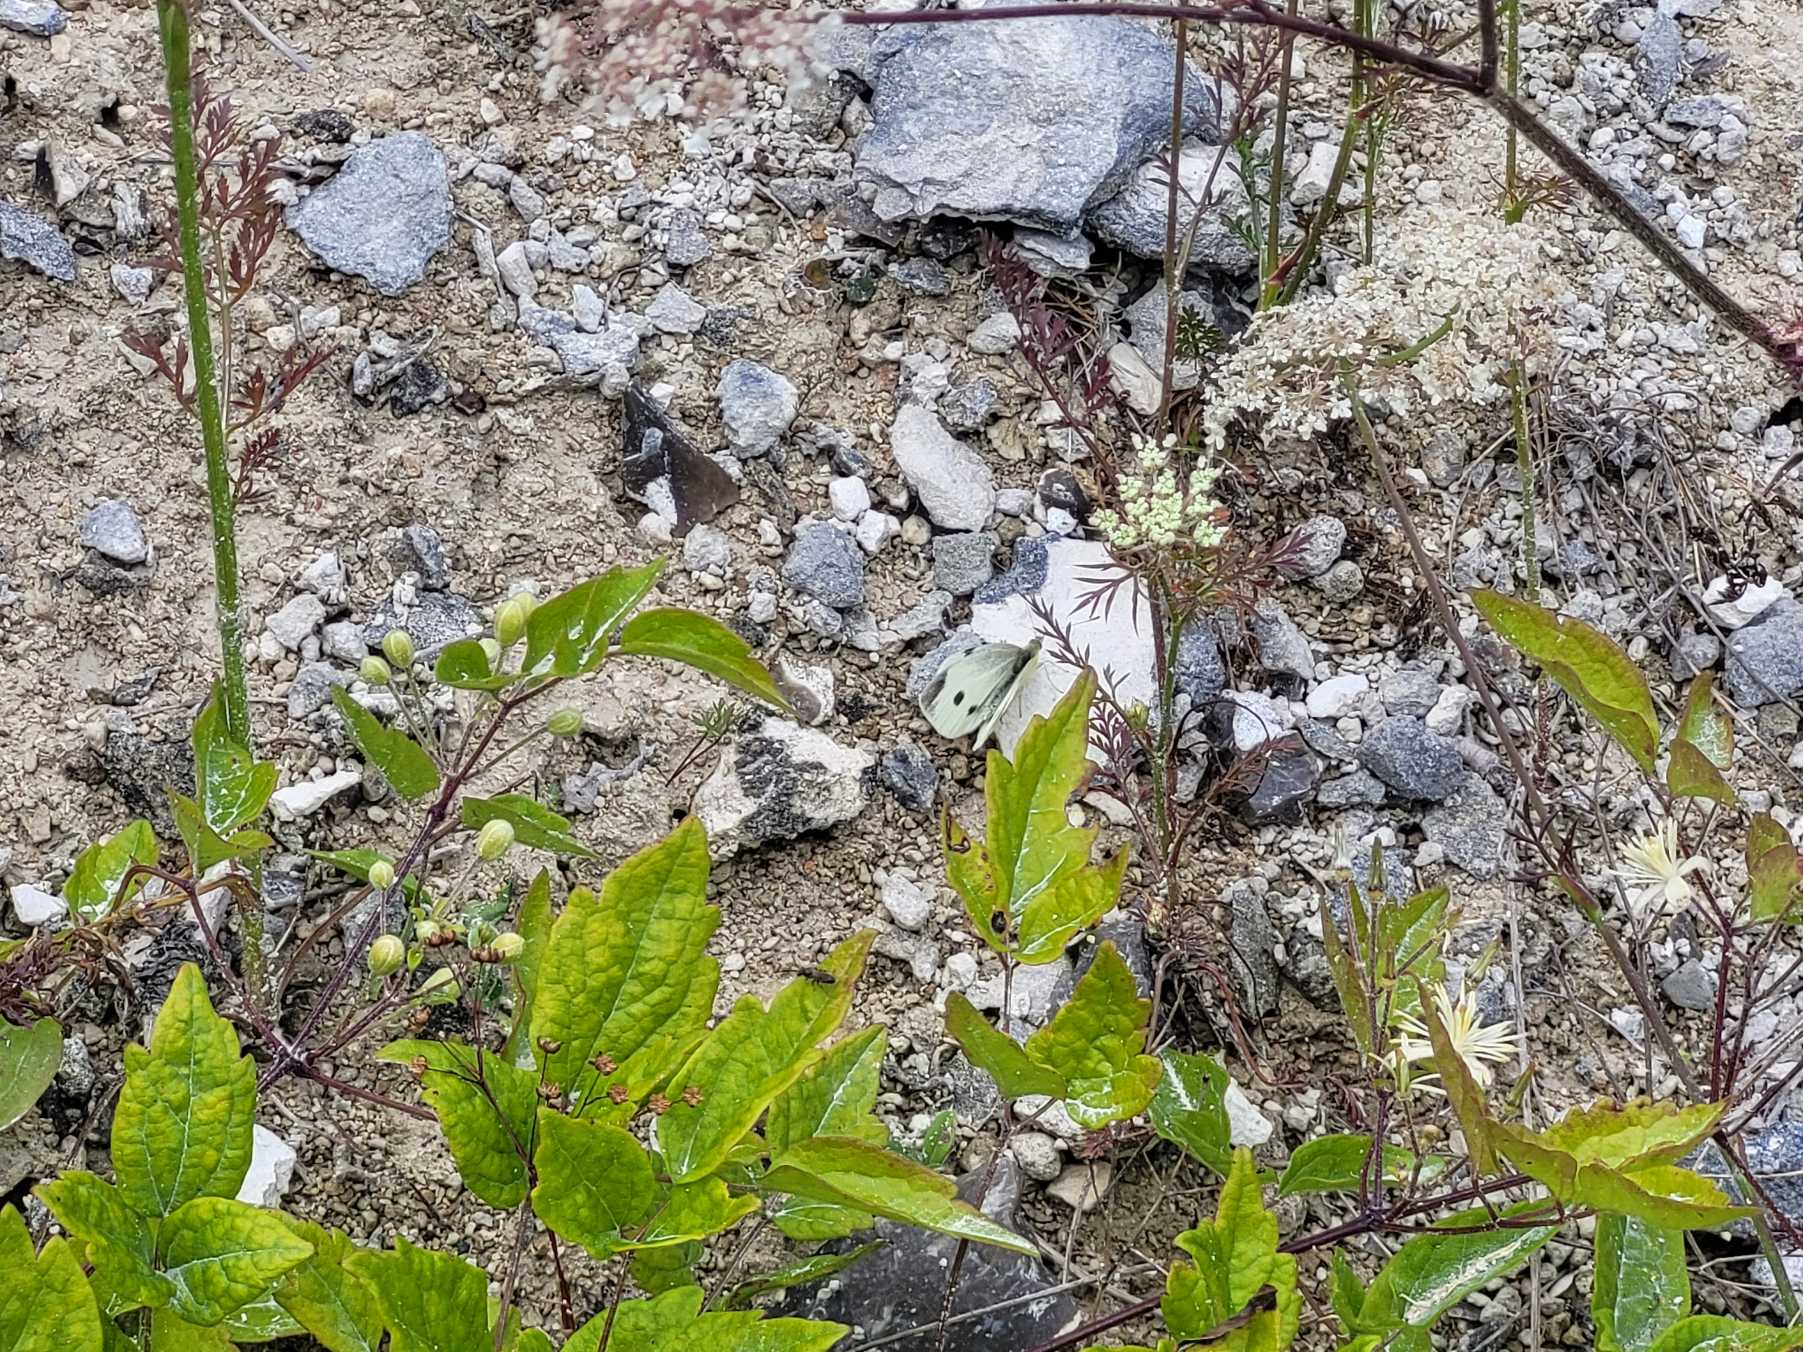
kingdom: Animalia
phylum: Arthropoda
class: Insecta
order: Lepidoptera
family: Pieridae
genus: Pieris
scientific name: Pieris rapae
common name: Lille kålsommerfugl
